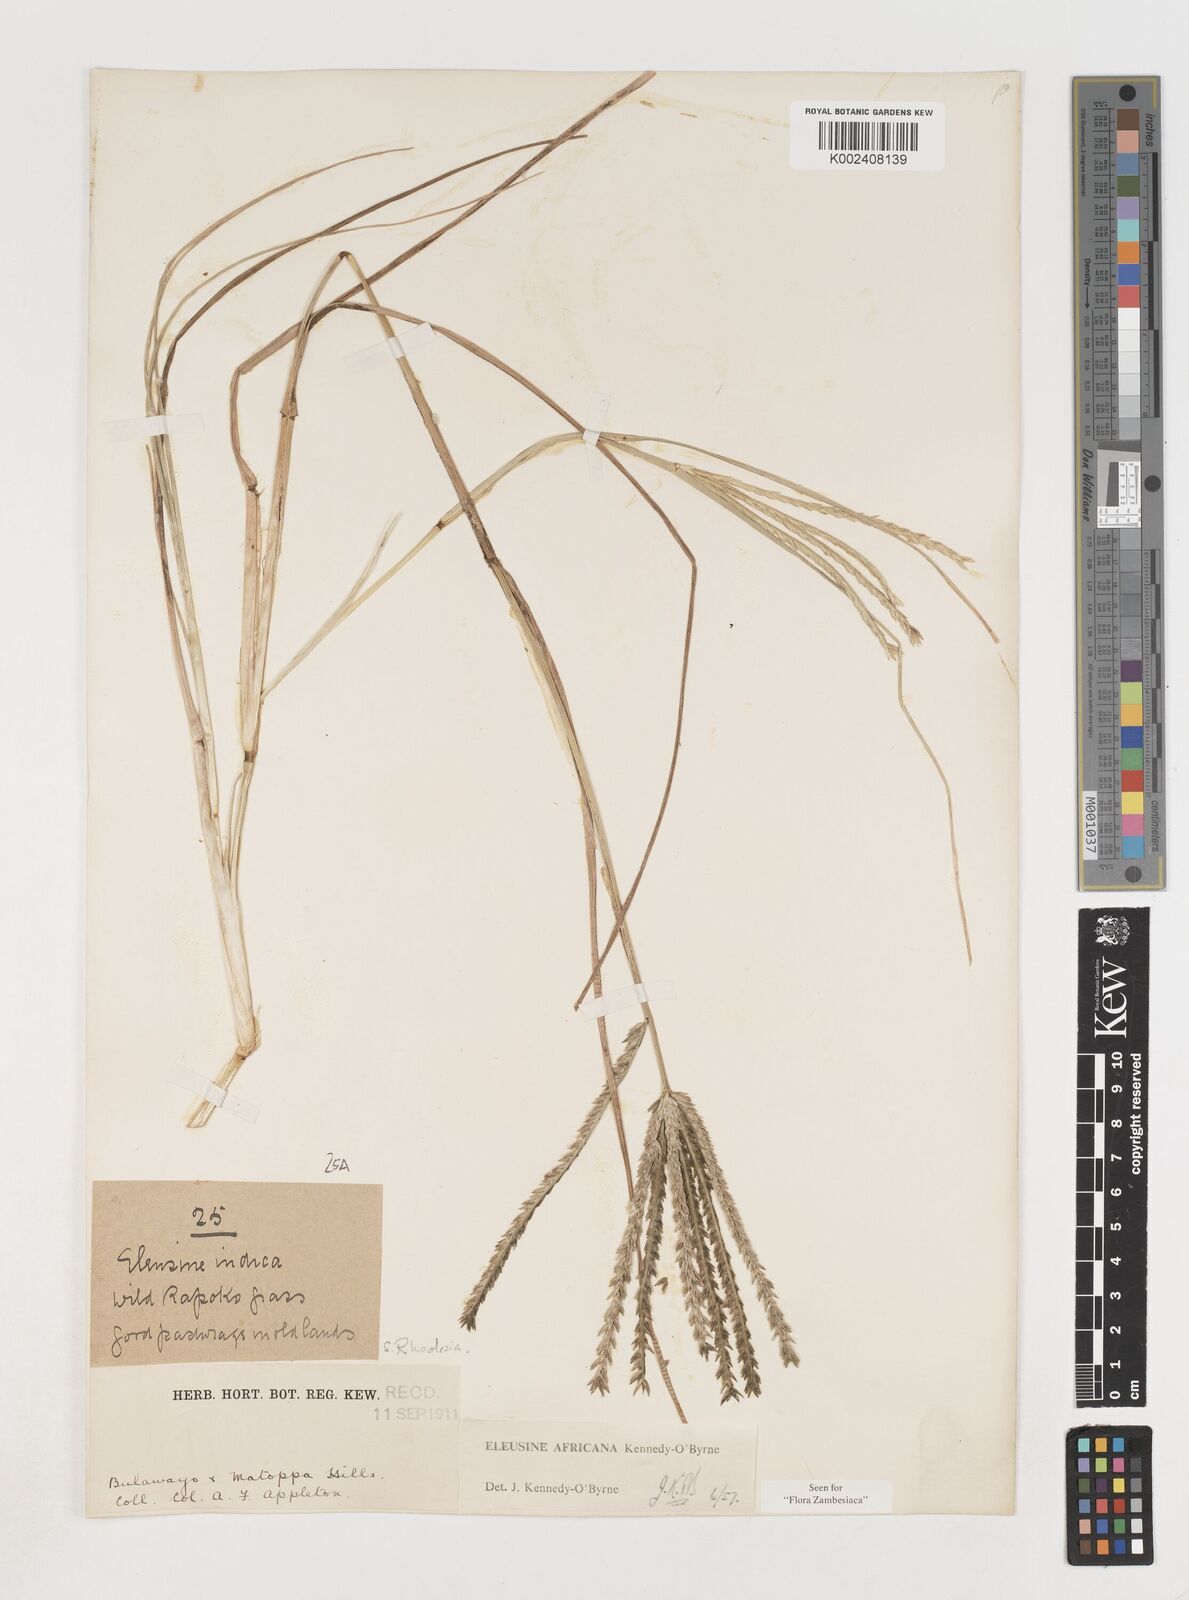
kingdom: Plantae
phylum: Tracheophyta
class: Liliopsida
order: Poales
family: Poaceae
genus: Eleusine
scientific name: Eleusine africana
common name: Wild african finger millet
